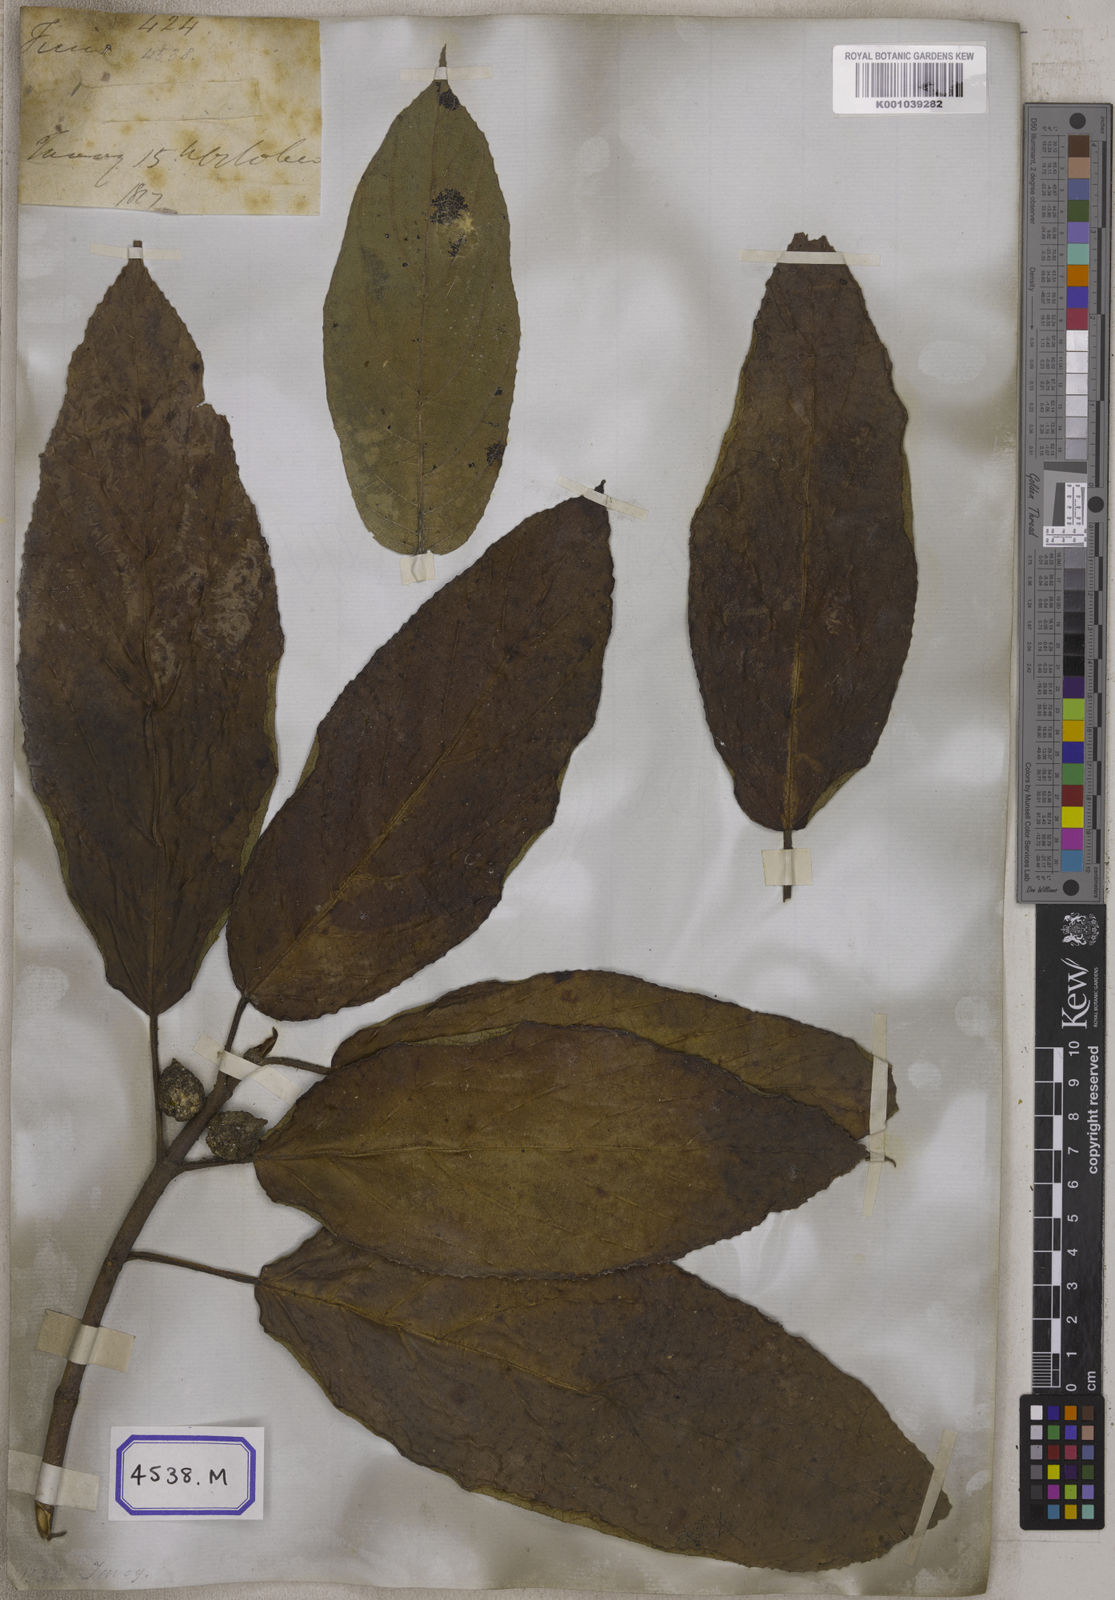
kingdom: Plantae
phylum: Tracheophyta
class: Magnoliopsida
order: Rosales
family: Moraceae
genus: Ficus
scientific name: Ficus hispida
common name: Hairy fig
